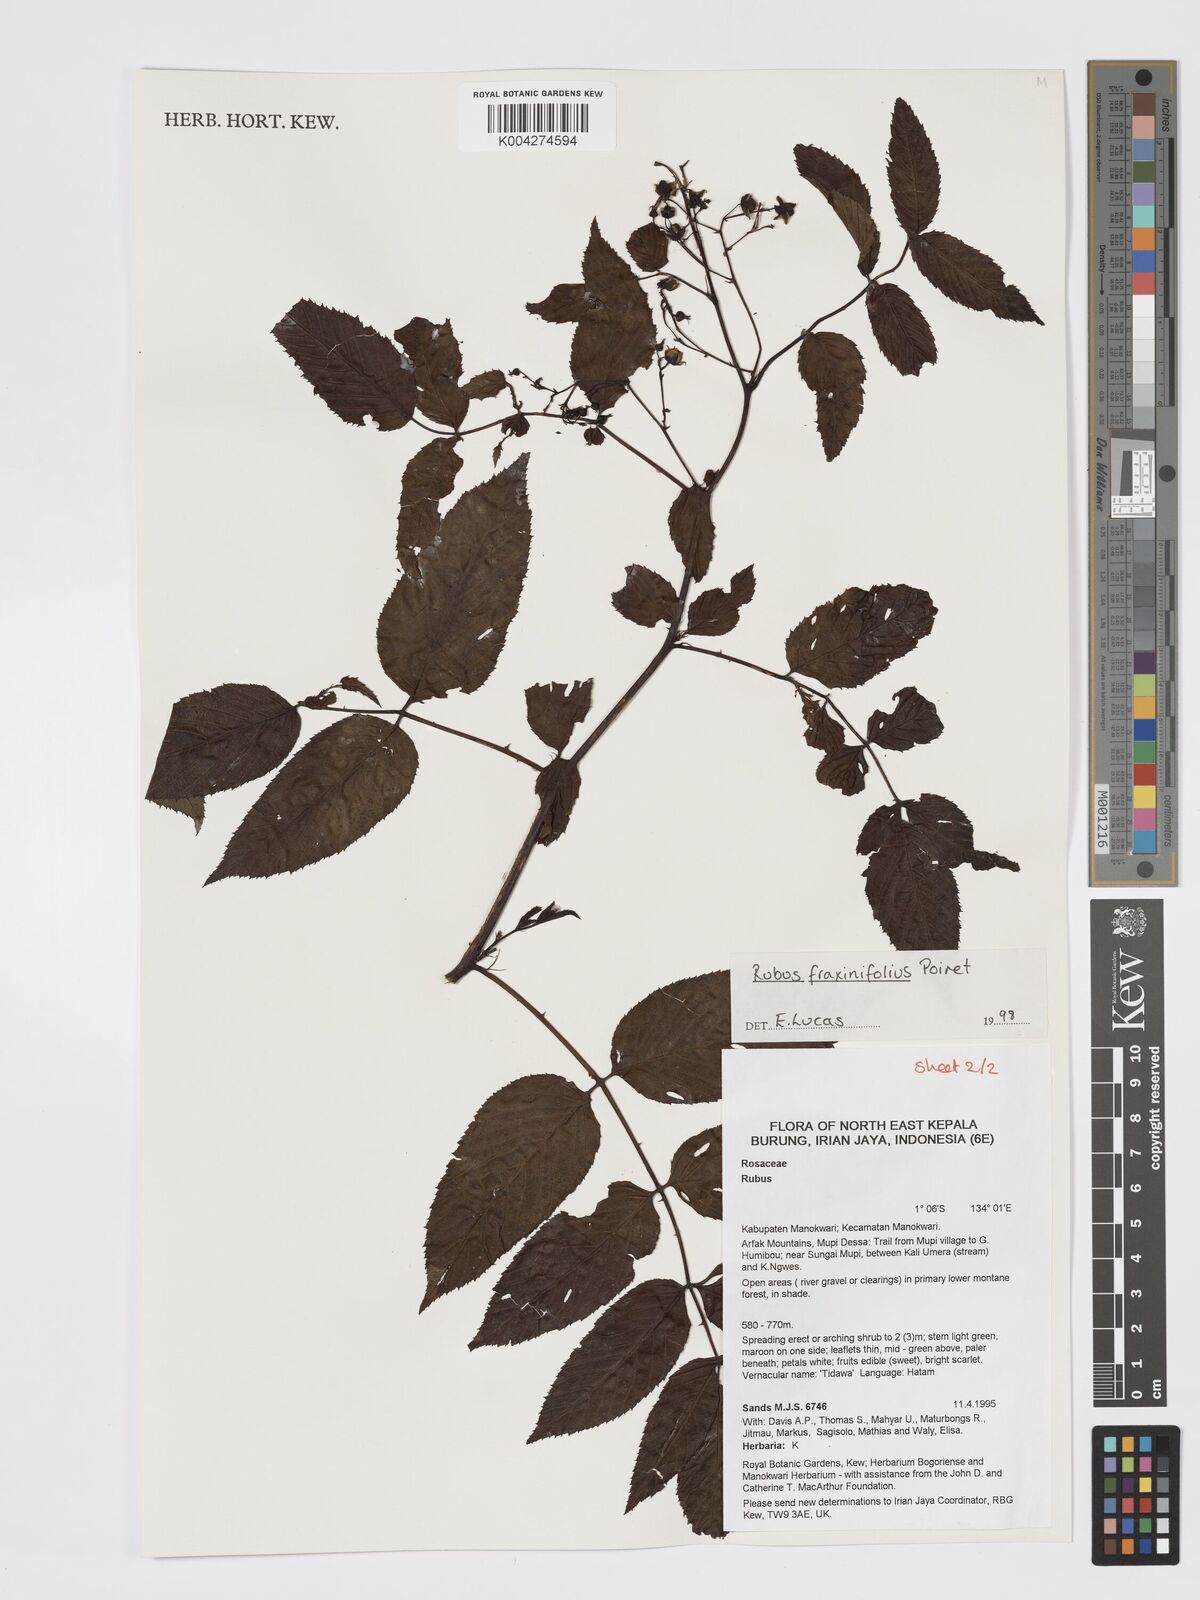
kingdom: Plantae
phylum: Tracheophyta
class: Magnoliopsida
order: Rosales
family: Rosaceae
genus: Rubus
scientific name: Rubus fraxinifolius
